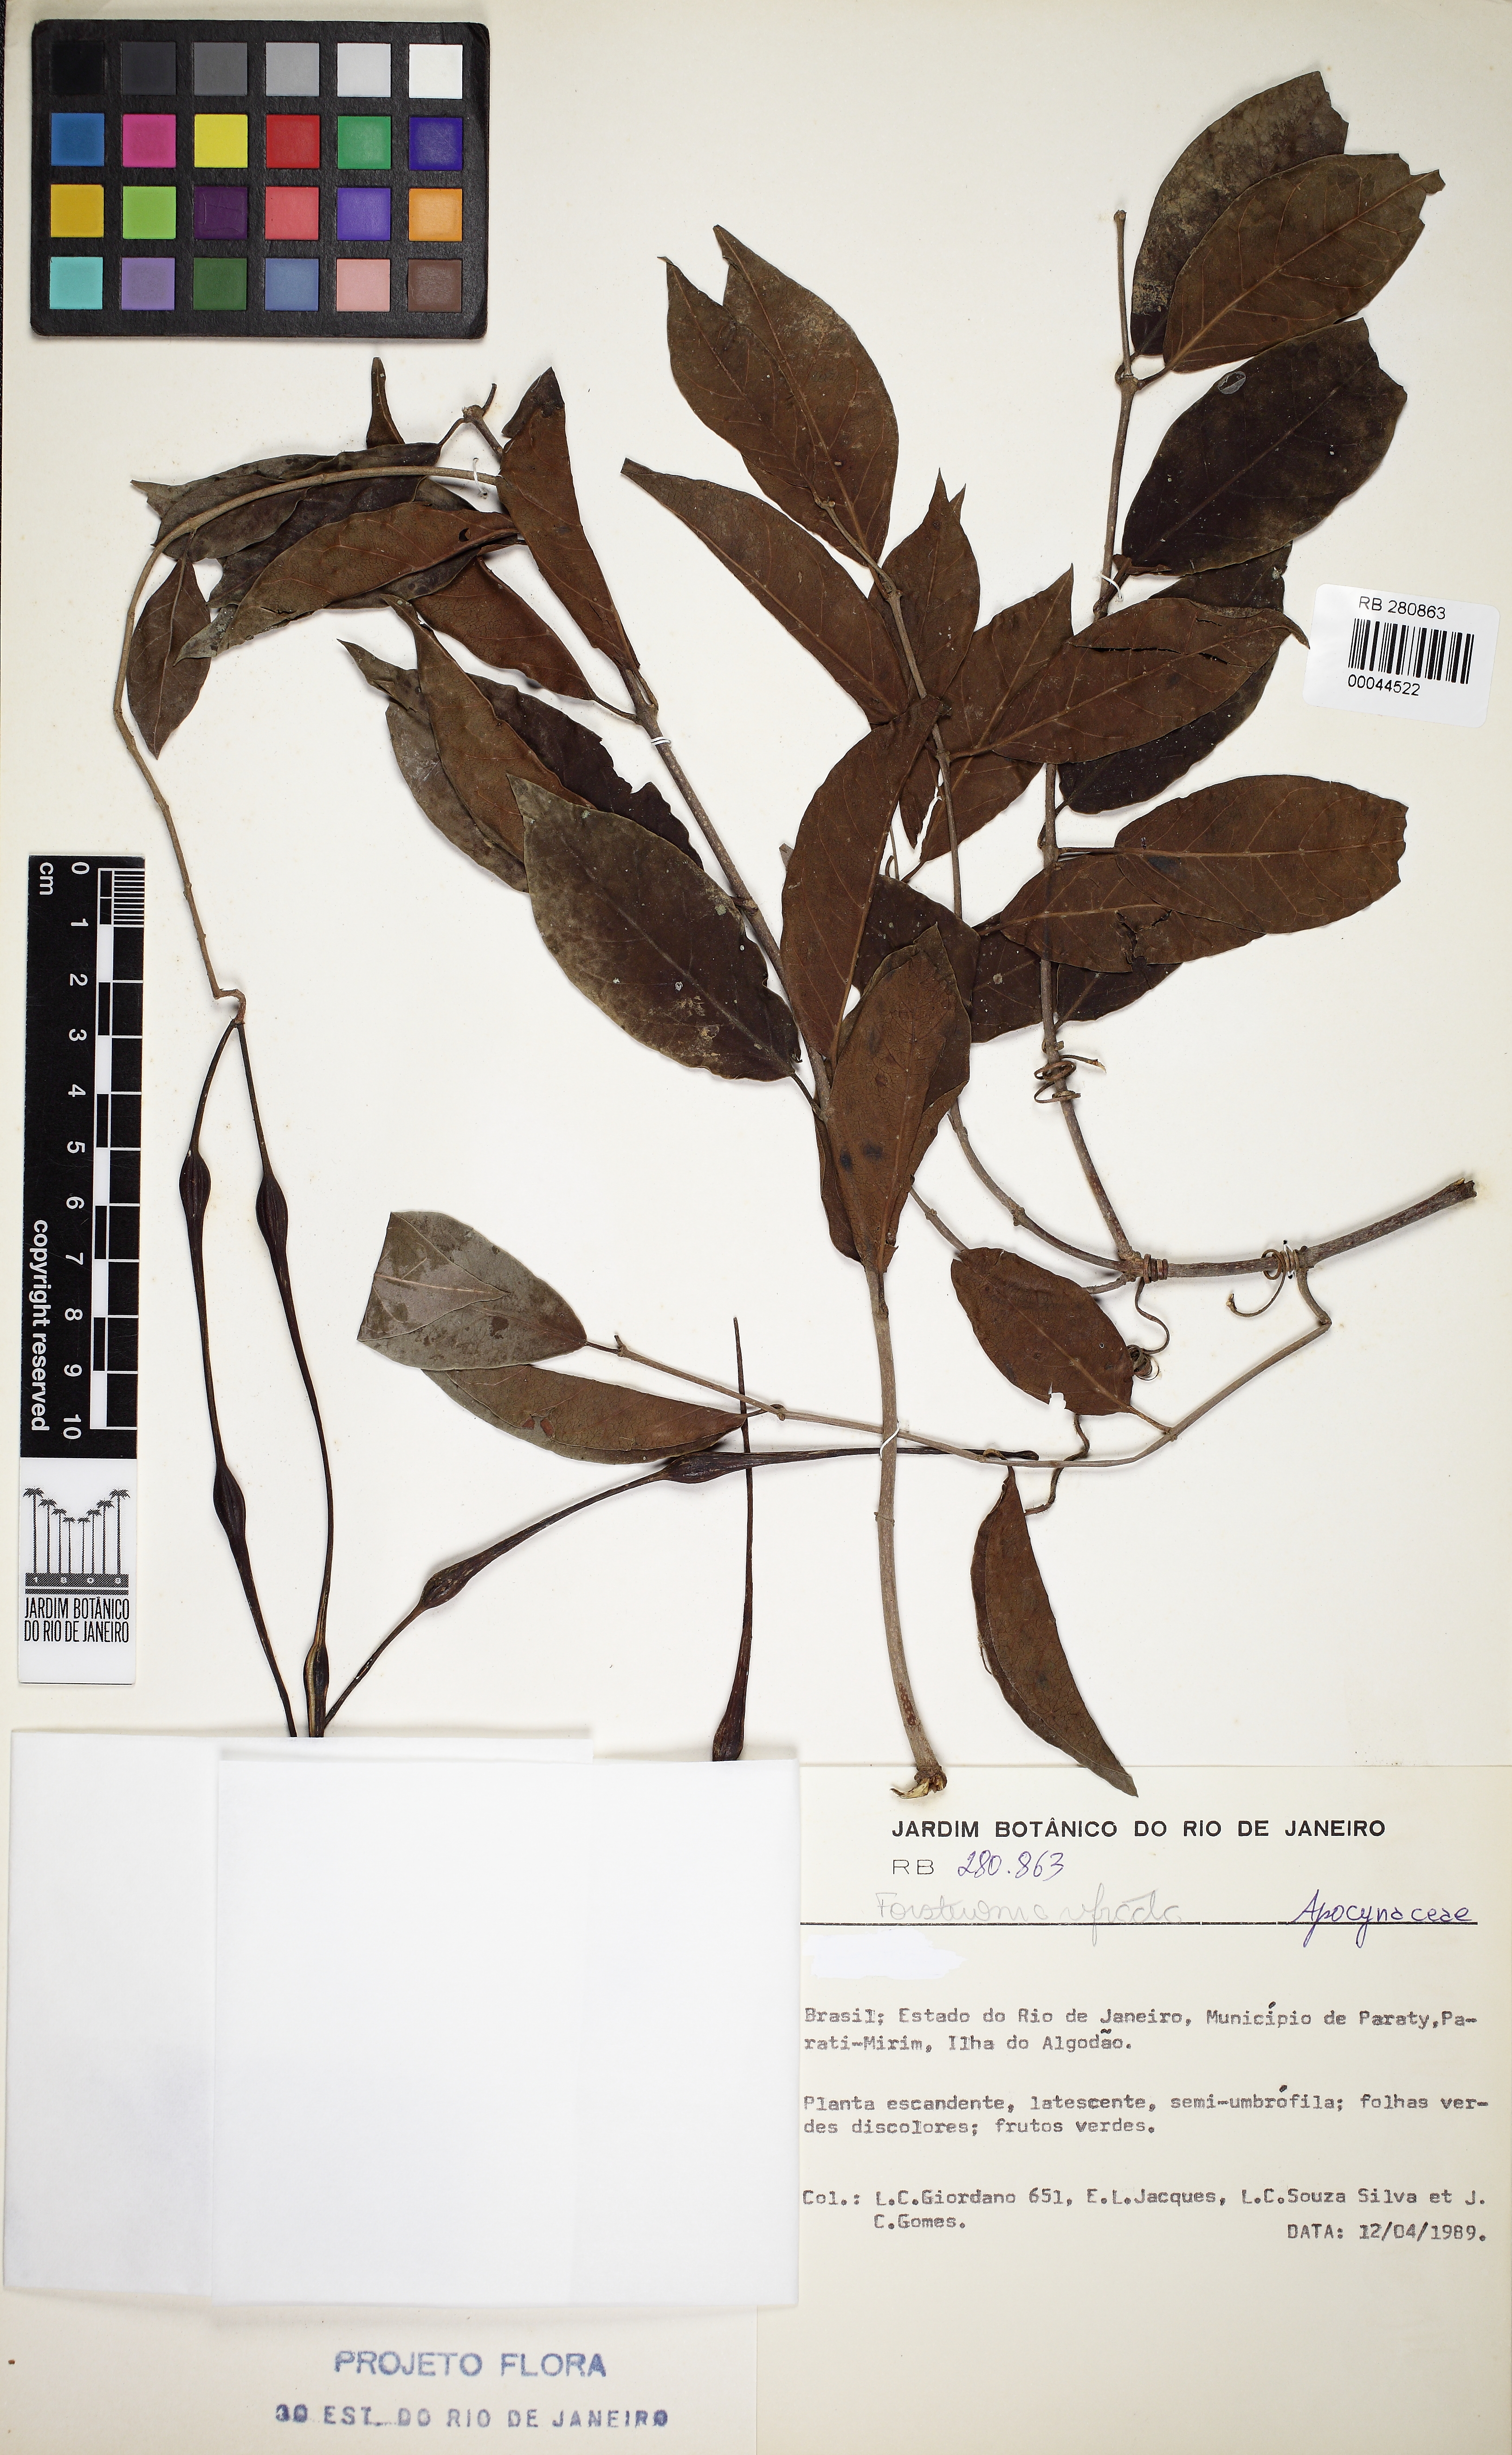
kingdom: Plantae
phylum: Tracheophyta
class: Magnoliopsida
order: Gentianales
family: Apocynaceae
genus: Forsteronia
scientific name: Forsteronia refracta
